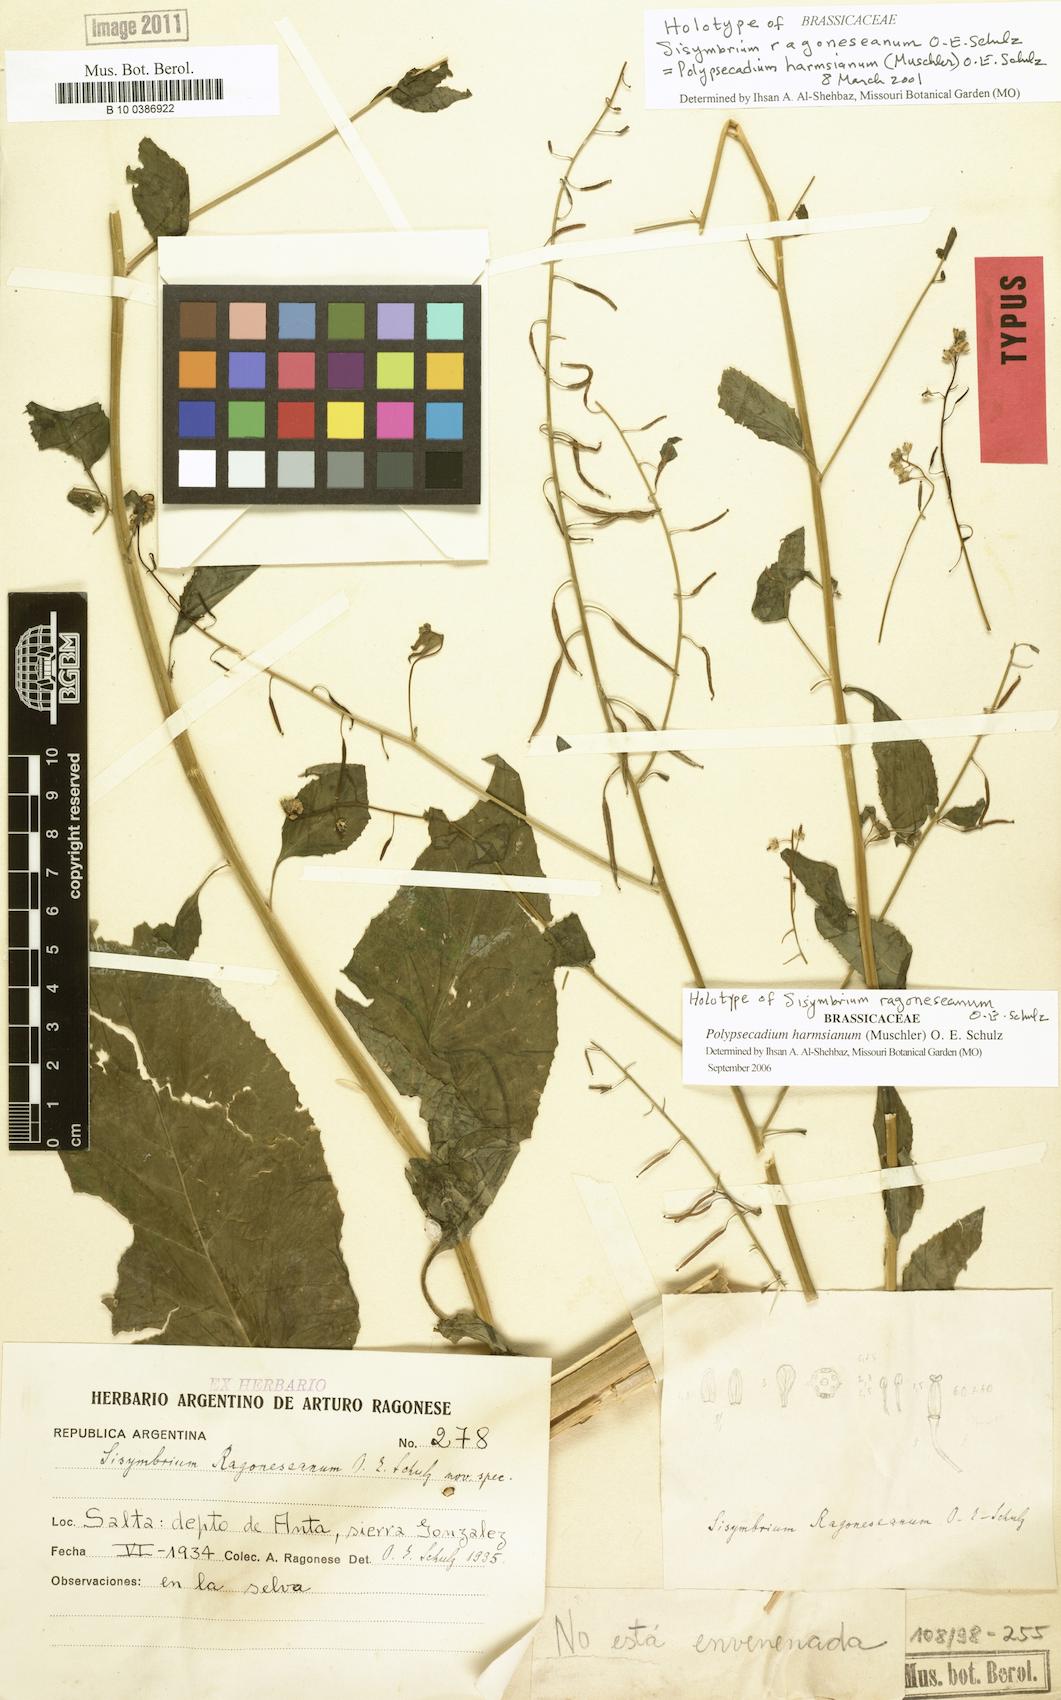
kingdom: Plantae
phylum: Tracheophyta
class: Magnoliopsida
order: Brassicales
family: Brassicaceae
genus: Polypsecadium
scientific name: Polypsecadium harmsianum
